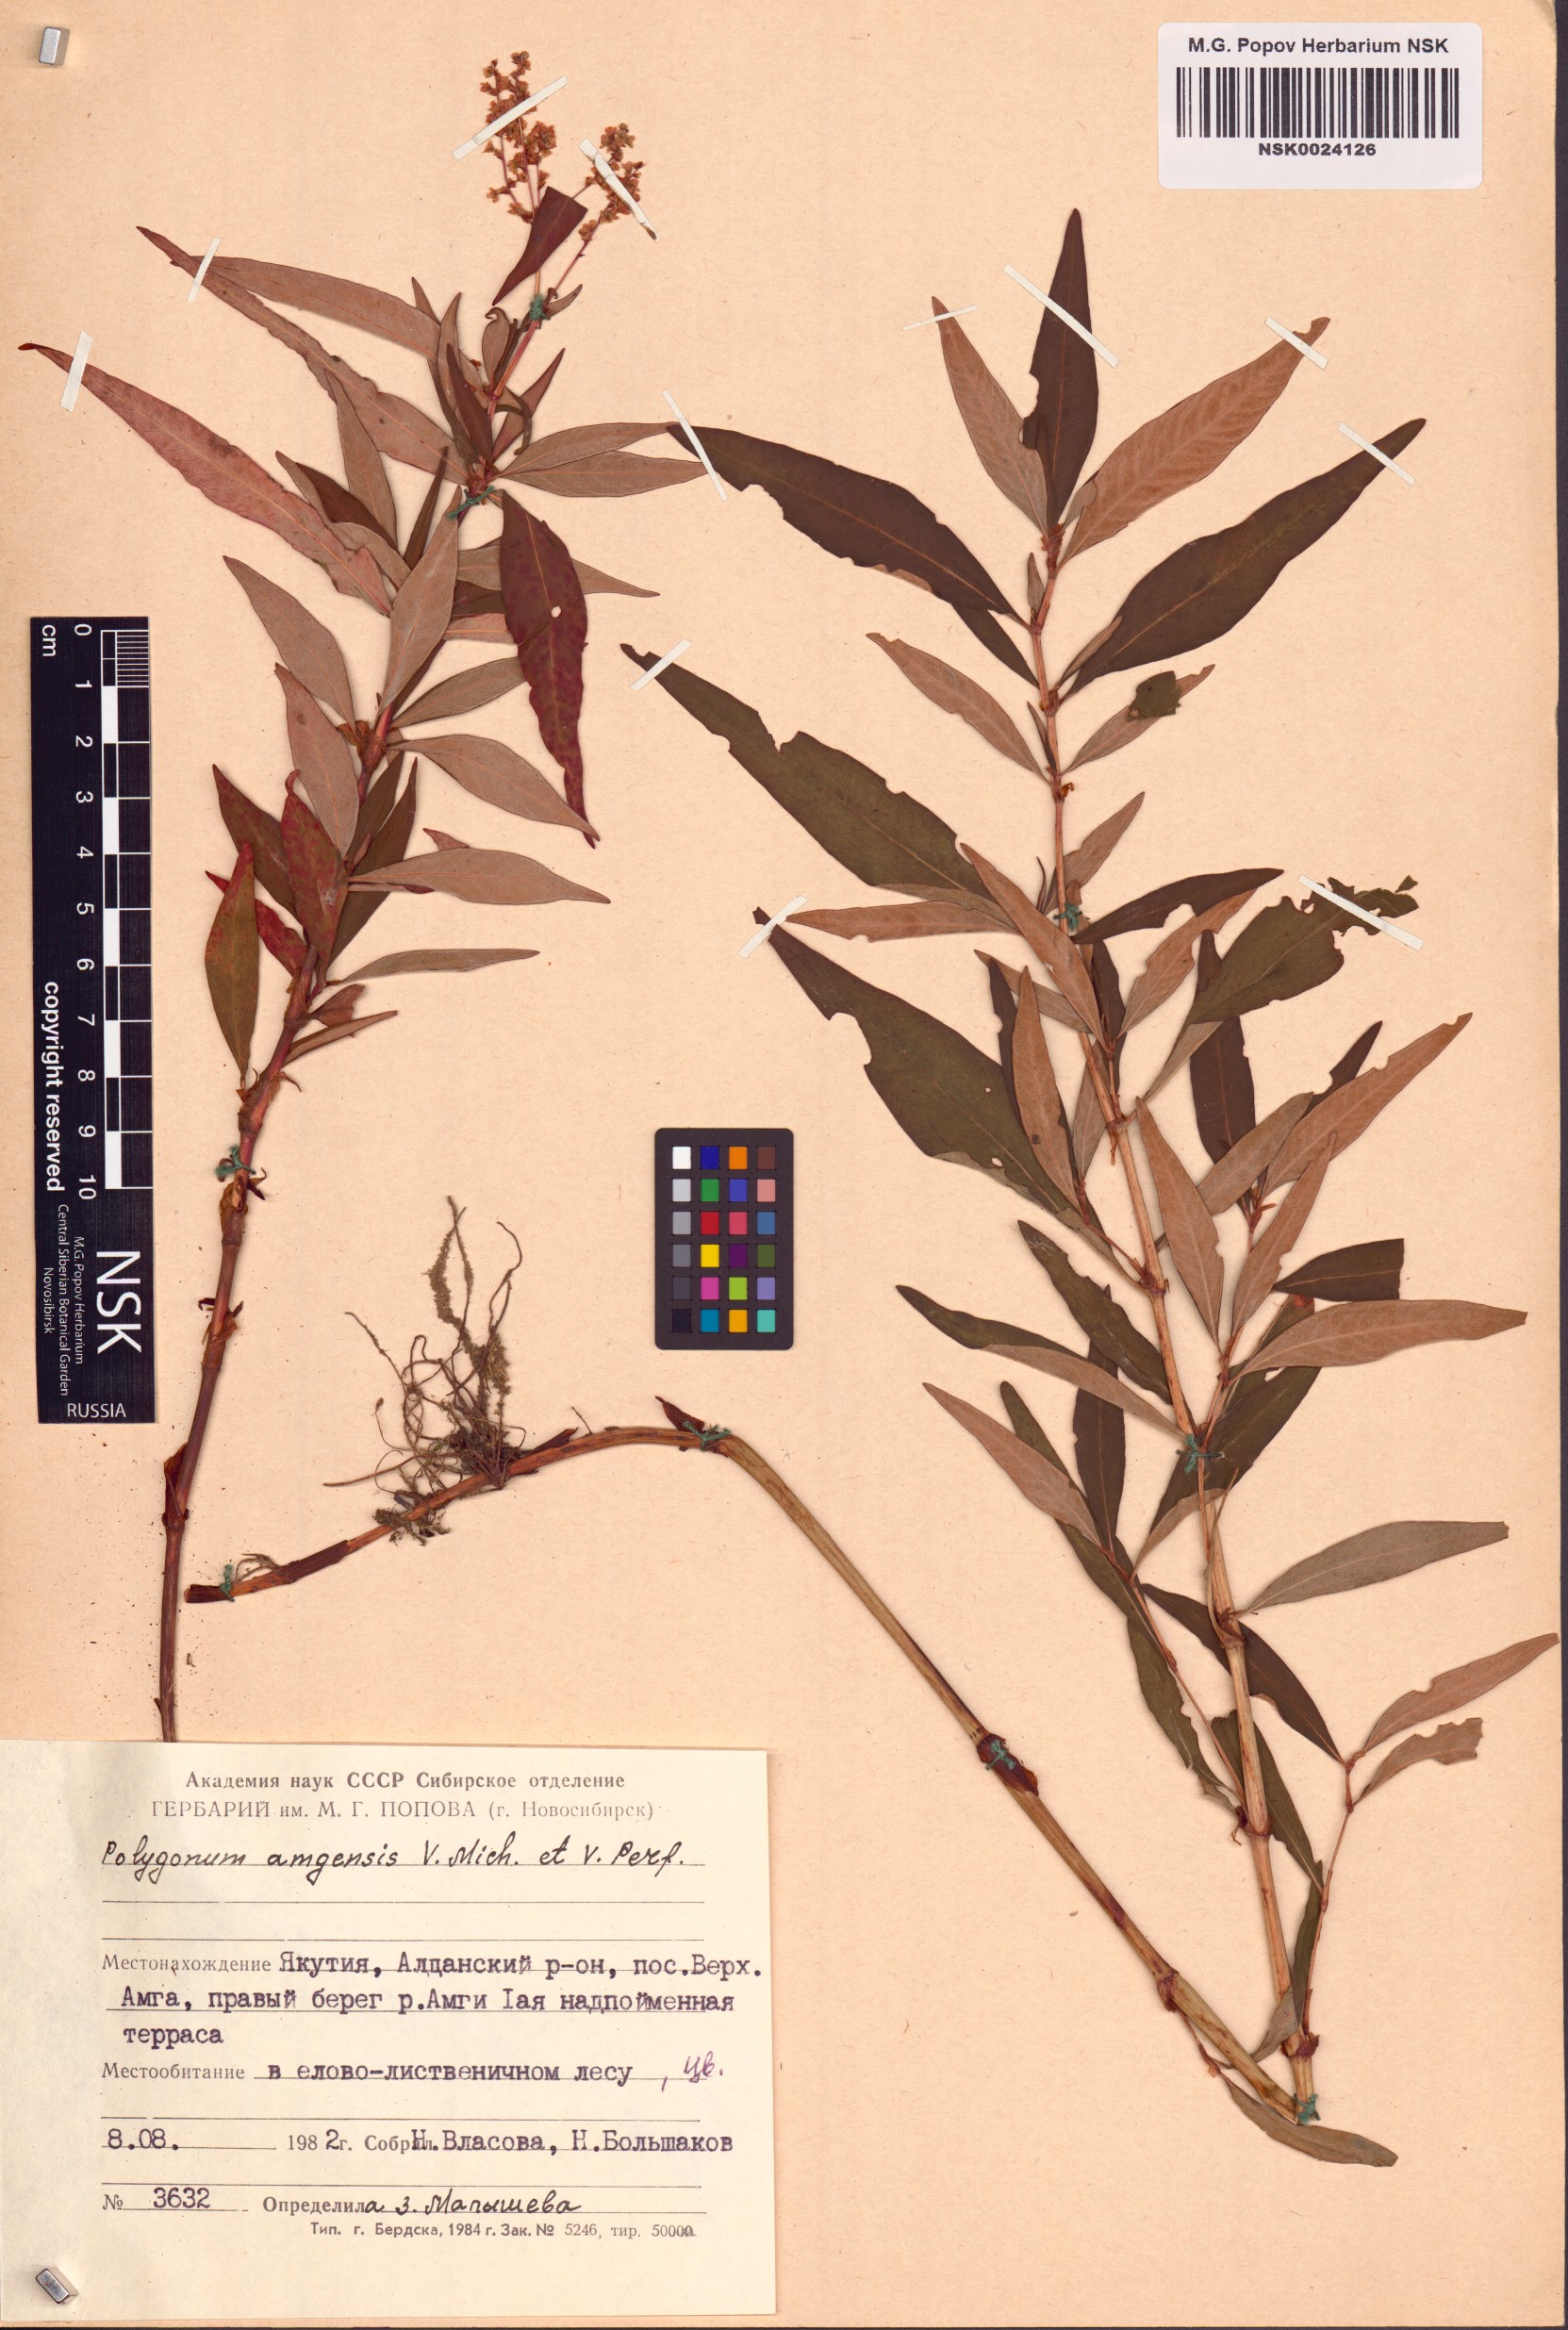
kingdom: Plantae
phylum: Tracheophyta
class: Magnoliopsida
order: Caryophyllales
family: Polygonaceae
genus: Polygonum
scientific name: Polygonum amgense
